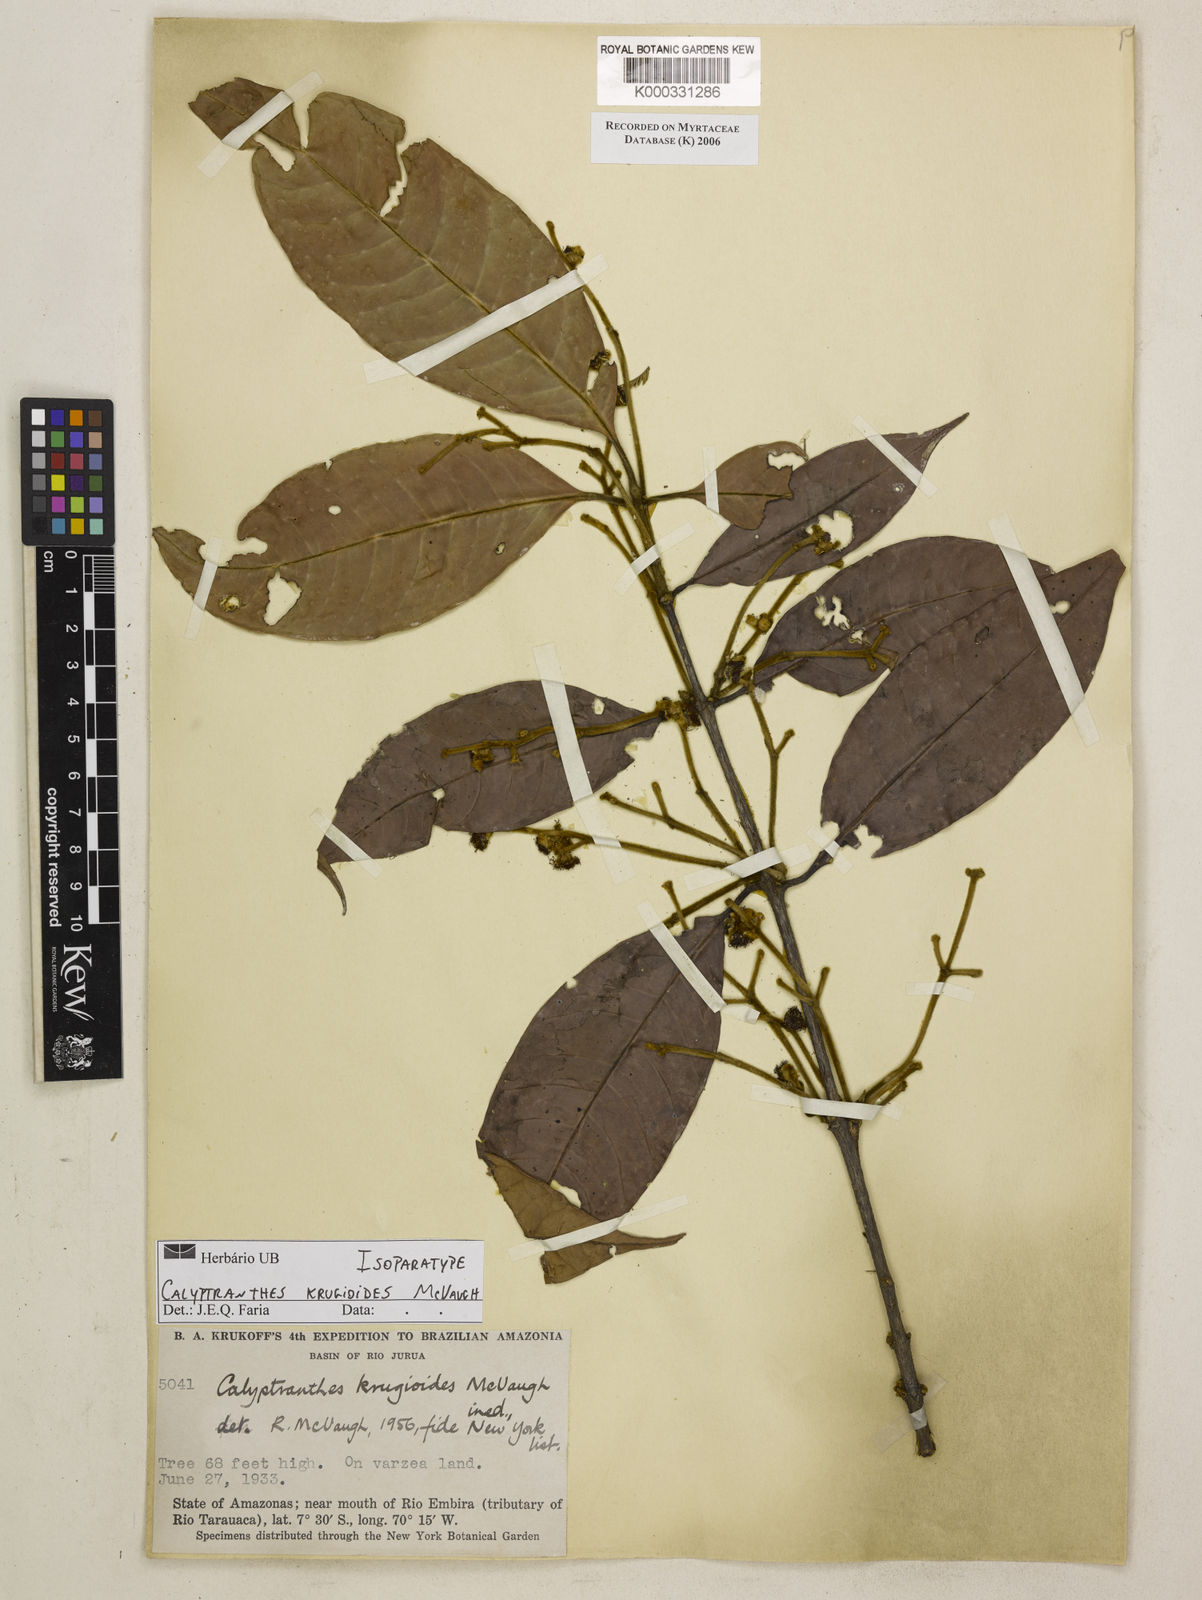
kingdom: Plantae
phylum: Tracheophyta
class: Magnoliopsida
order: Myrtales
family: Myrtaceae
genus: Myrcia
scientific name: Myrcia krugioides
